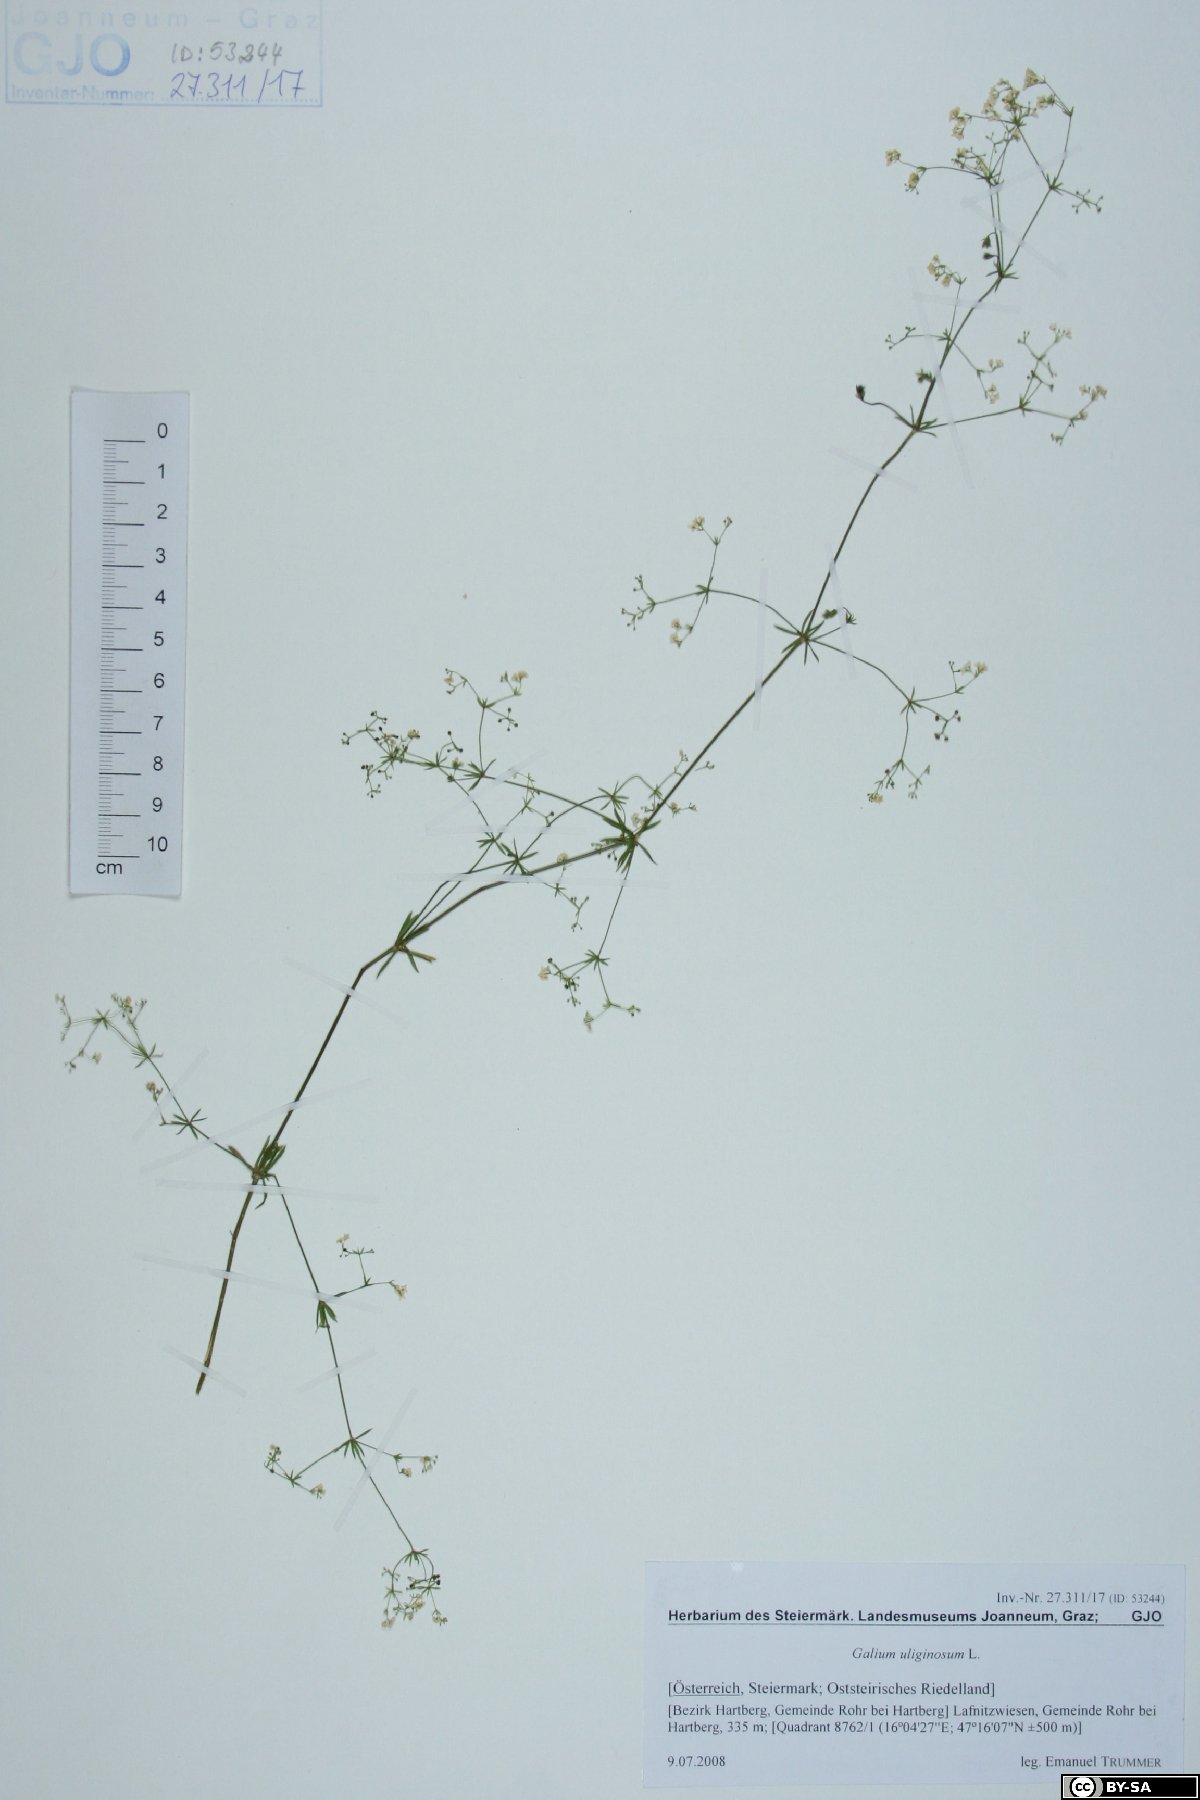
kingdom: Plantae
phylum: Tracheophyta
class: Magnoliopsida
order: Gentianales
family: Rubiaceae
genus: Galium
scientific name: Galium uliginosum
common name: Fen bedstraw
